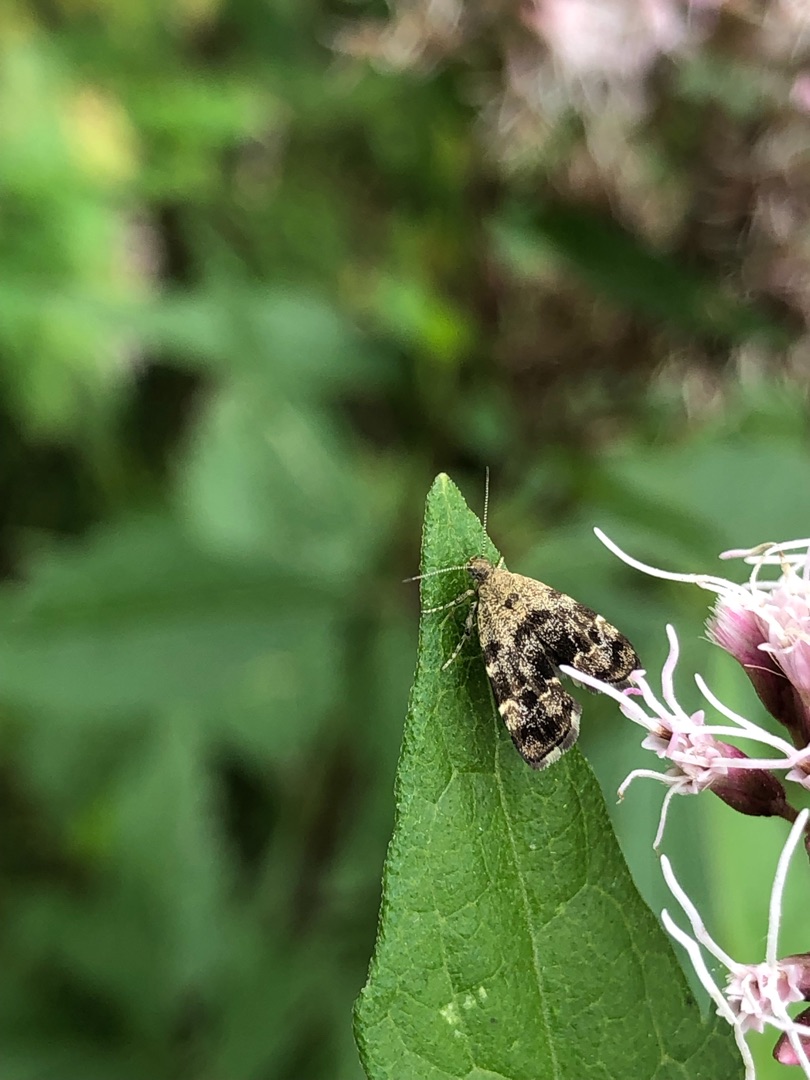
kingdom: Animalia
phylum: Arthropoda
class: Insecta
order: Lepidoptera
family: Choreutidae
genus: Anthophila
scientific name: Anthophila fabriciana
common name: Bredvinget nældevikler
